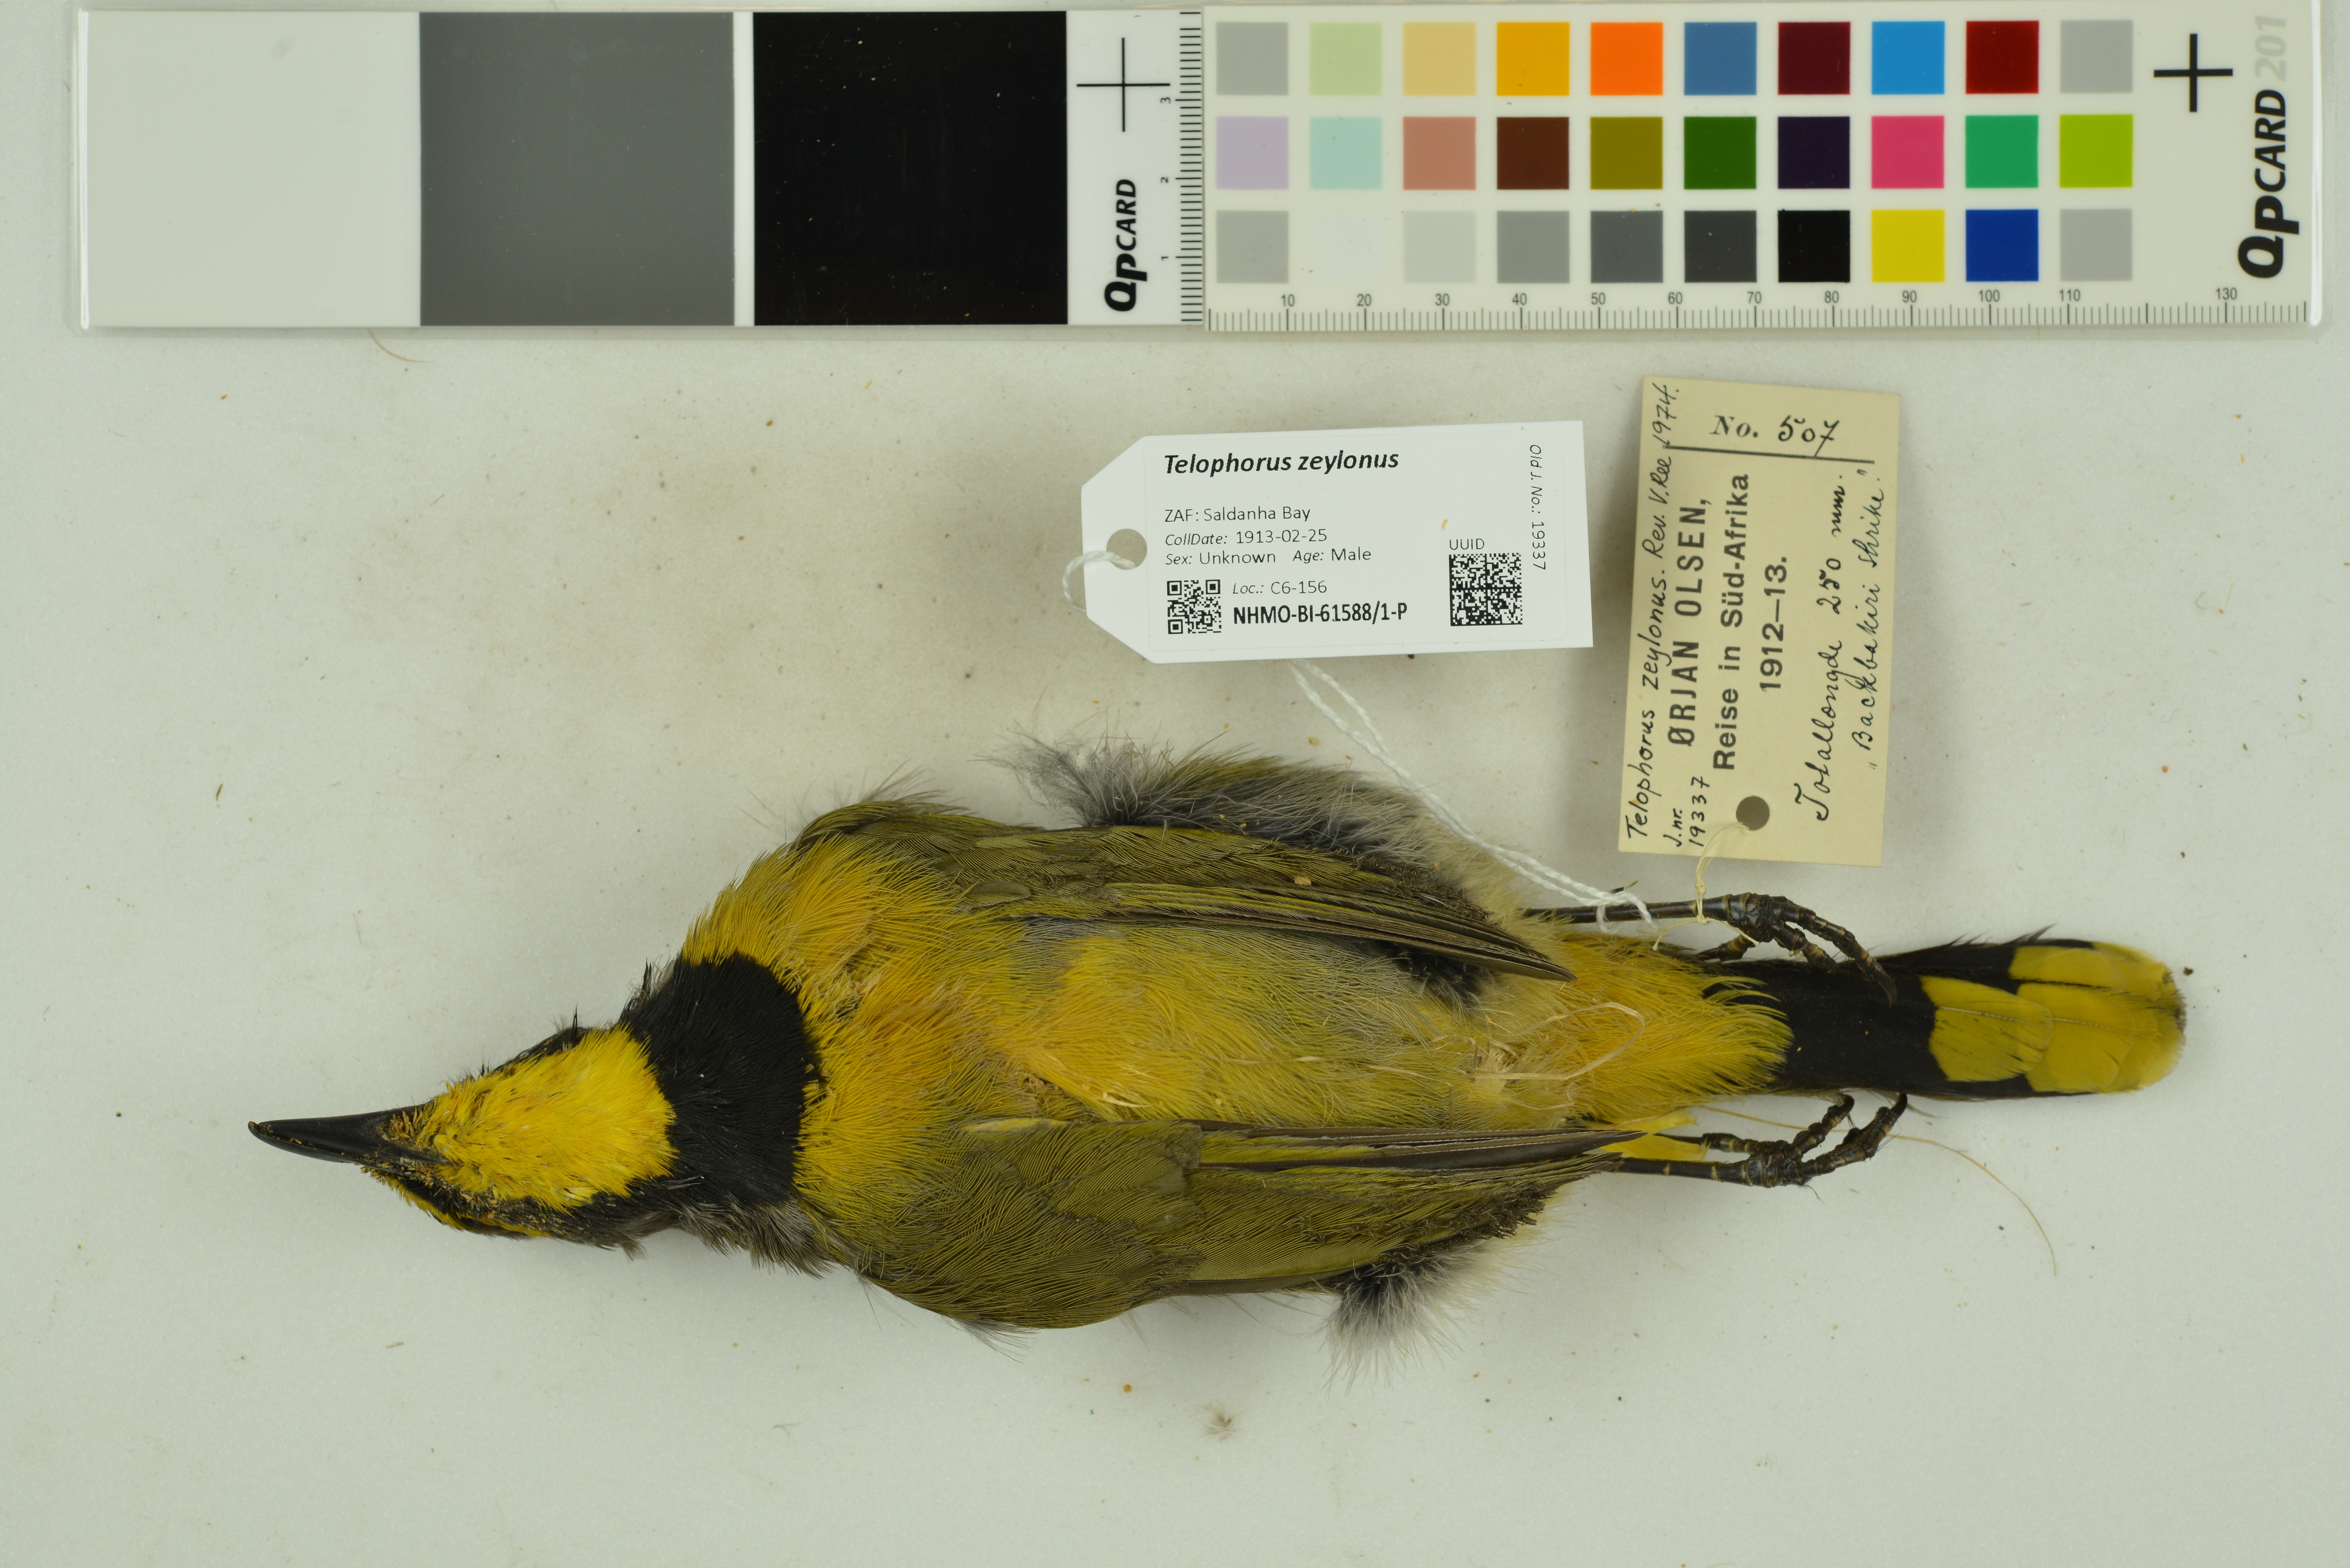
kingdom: Animalia
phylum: Chordata
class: Aves
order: Passeriformes
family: Malaconotidae
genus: Telophorus
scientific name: Telophorus zeylonus
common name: Bokmakierie
